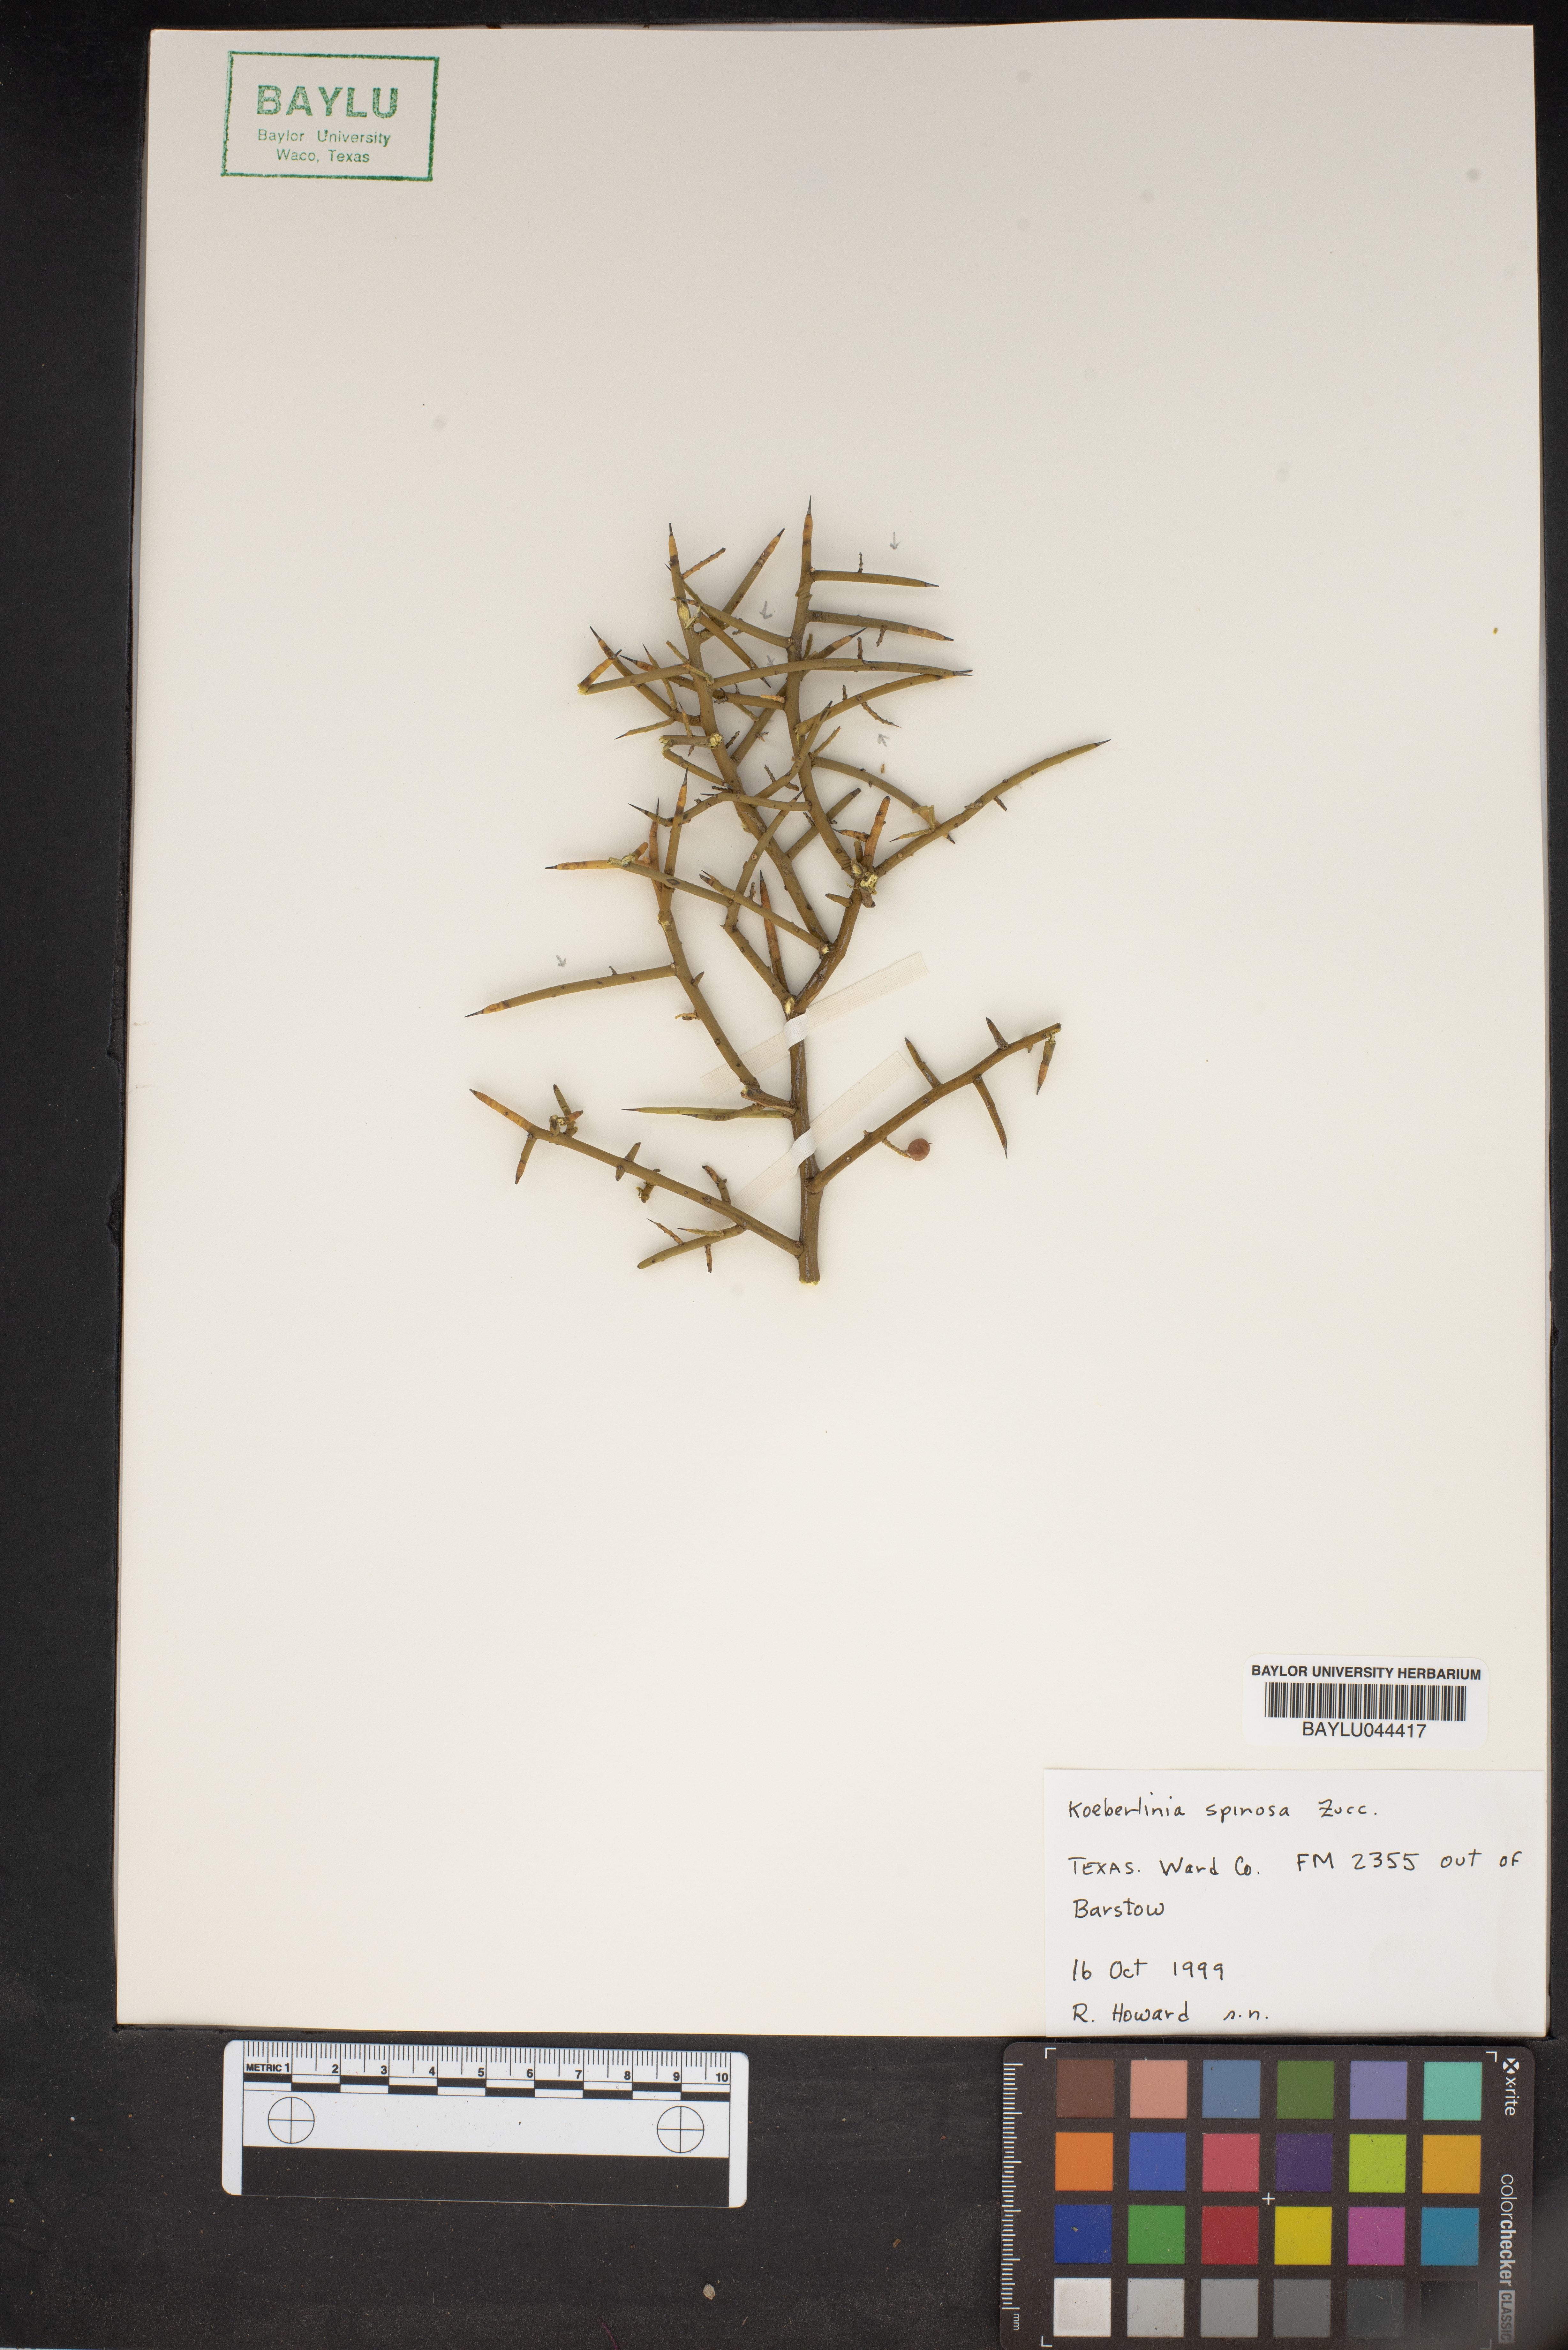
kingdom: Plantae
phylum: Tracheophyta
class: Magnoliopsida
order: Brassicales
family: Koeberliniaceae
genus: Koeberlinia
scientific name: Koeberlinia spinosa
